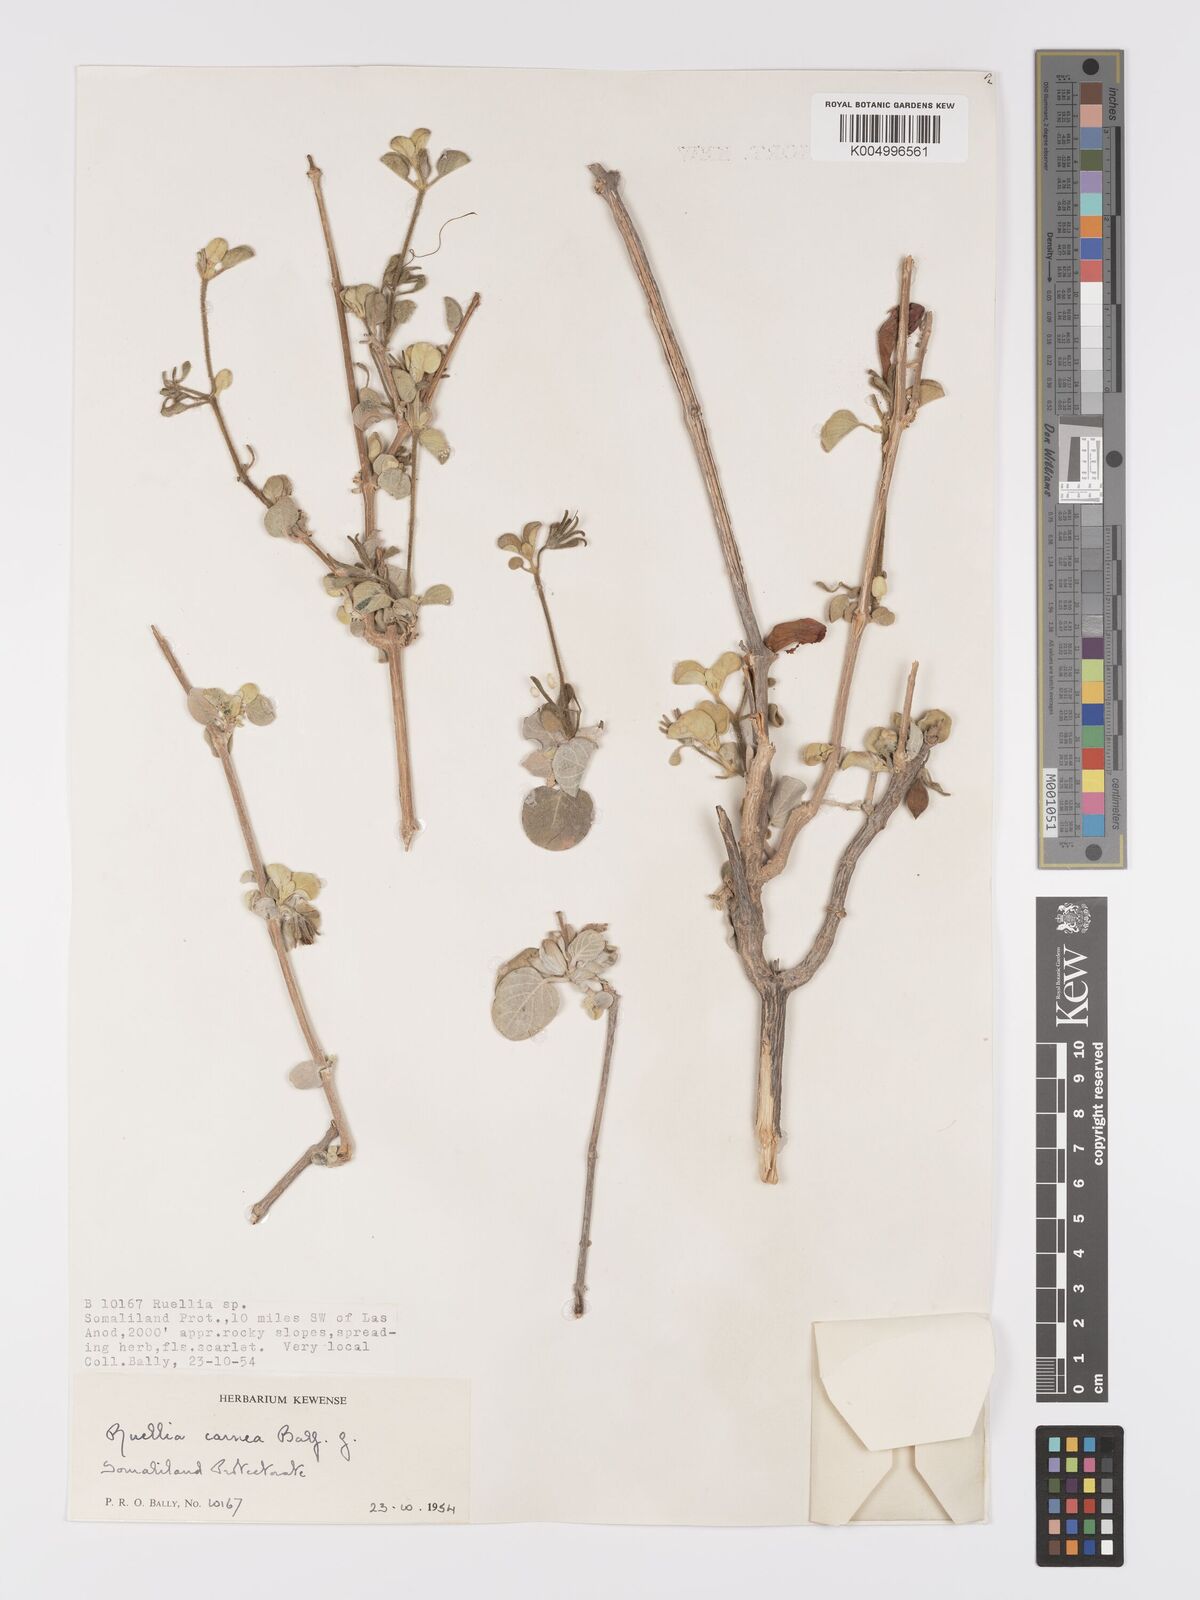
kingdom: Plantae
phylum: Tracheophyta
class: Magnoliopsida
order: Lamiales
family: Acanthaceae
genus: Ruellia
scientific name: Ruellia carnea
